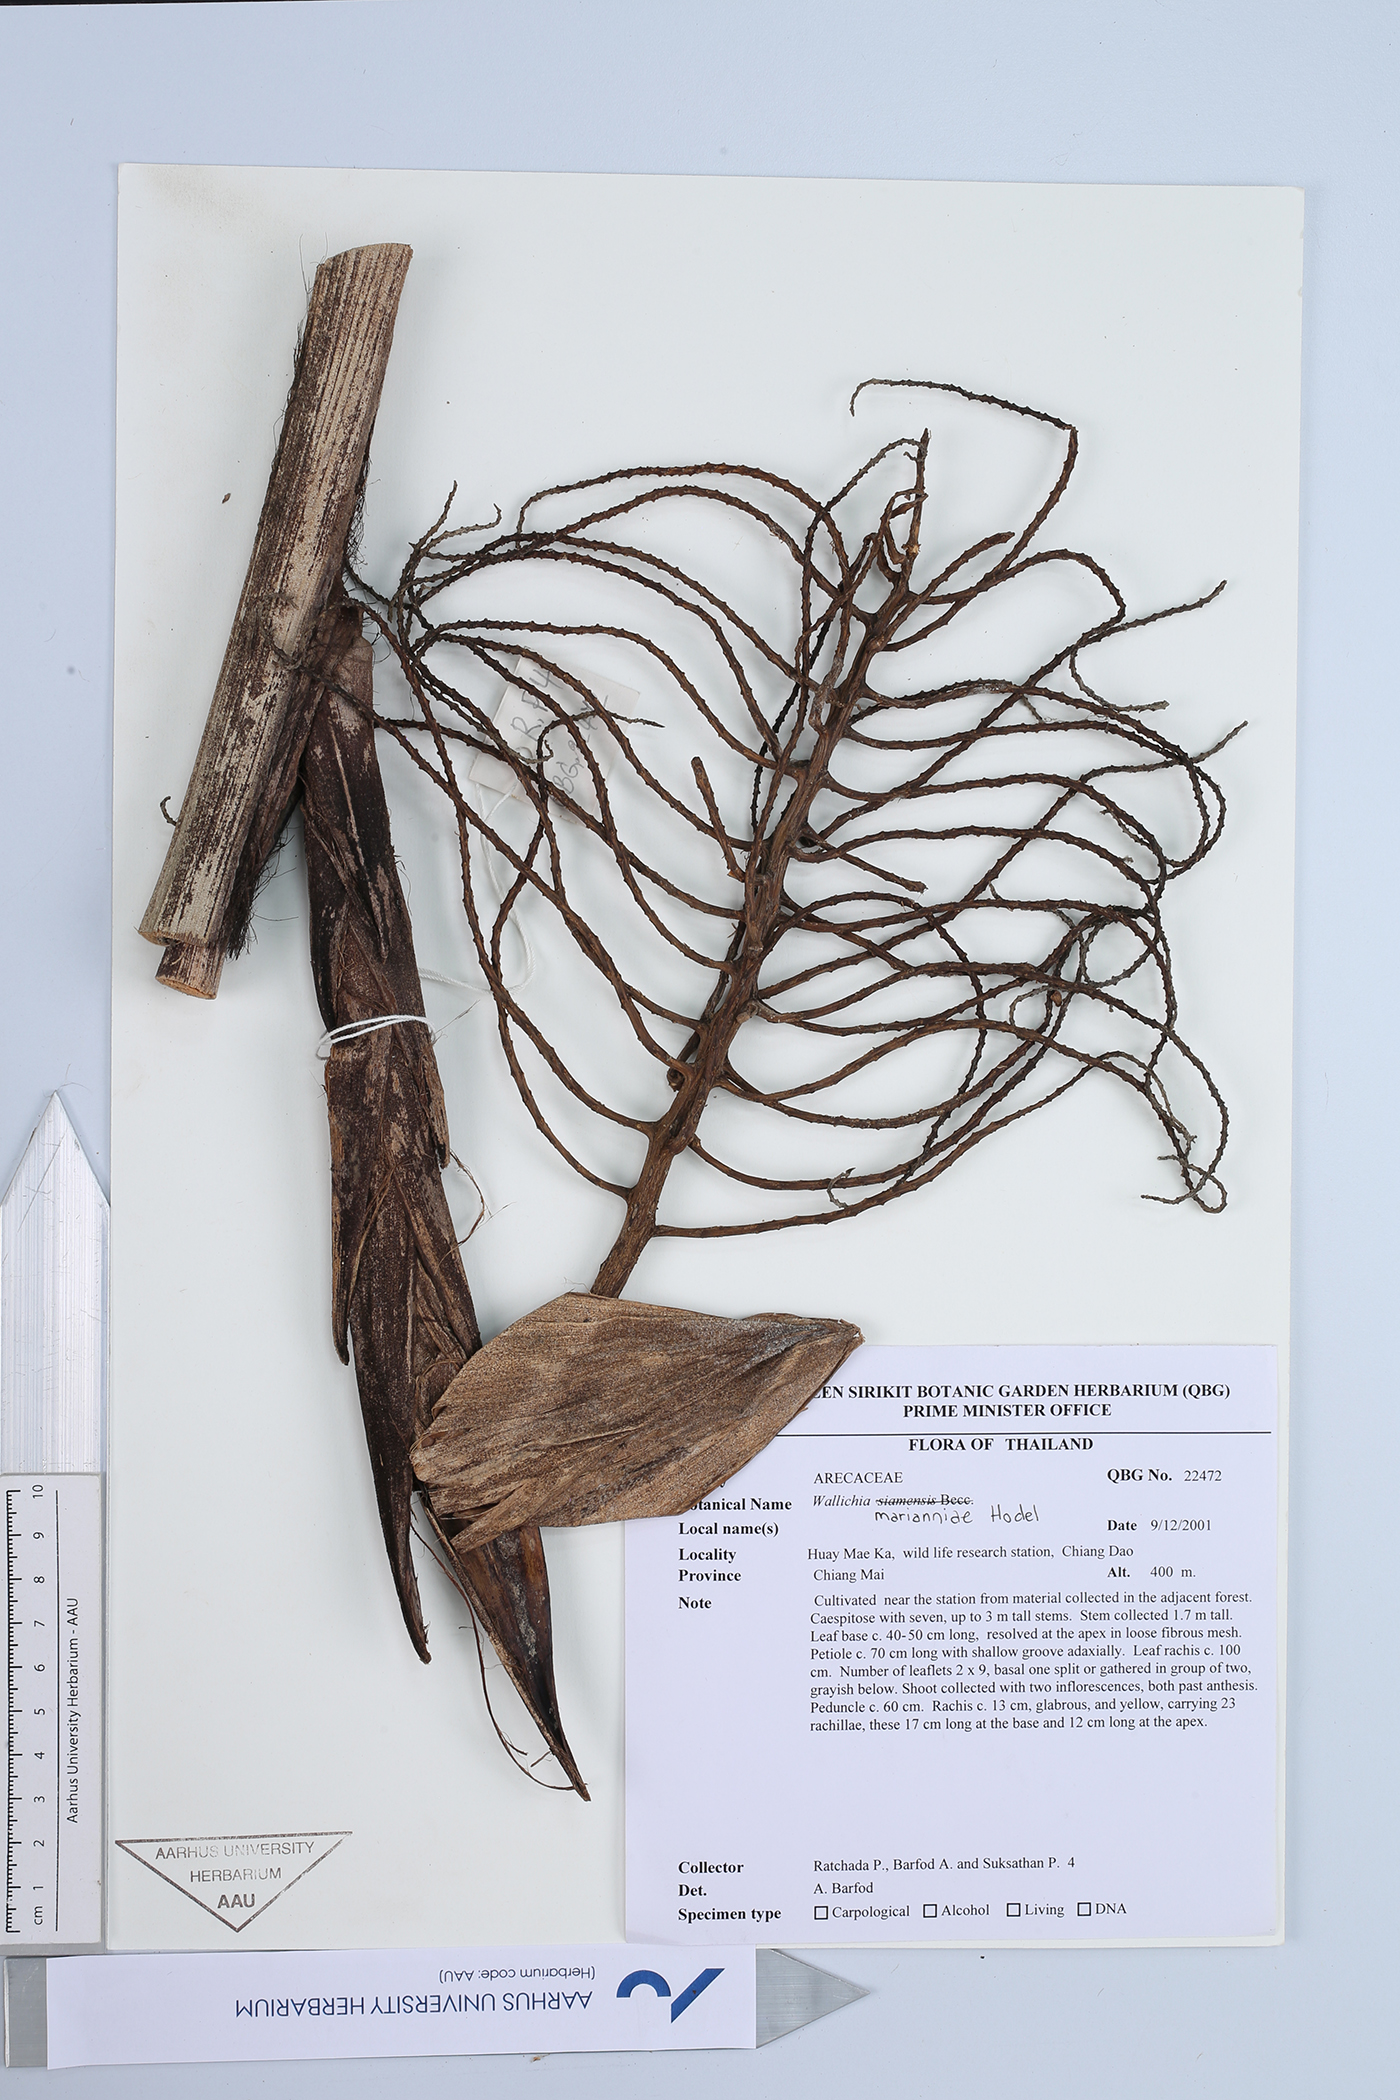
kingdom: Plantae
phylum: Tracheophyta
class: Liliopsida
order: Arecales
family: Arecaceae
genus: Wallichia
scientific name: Wallichia marianniae
